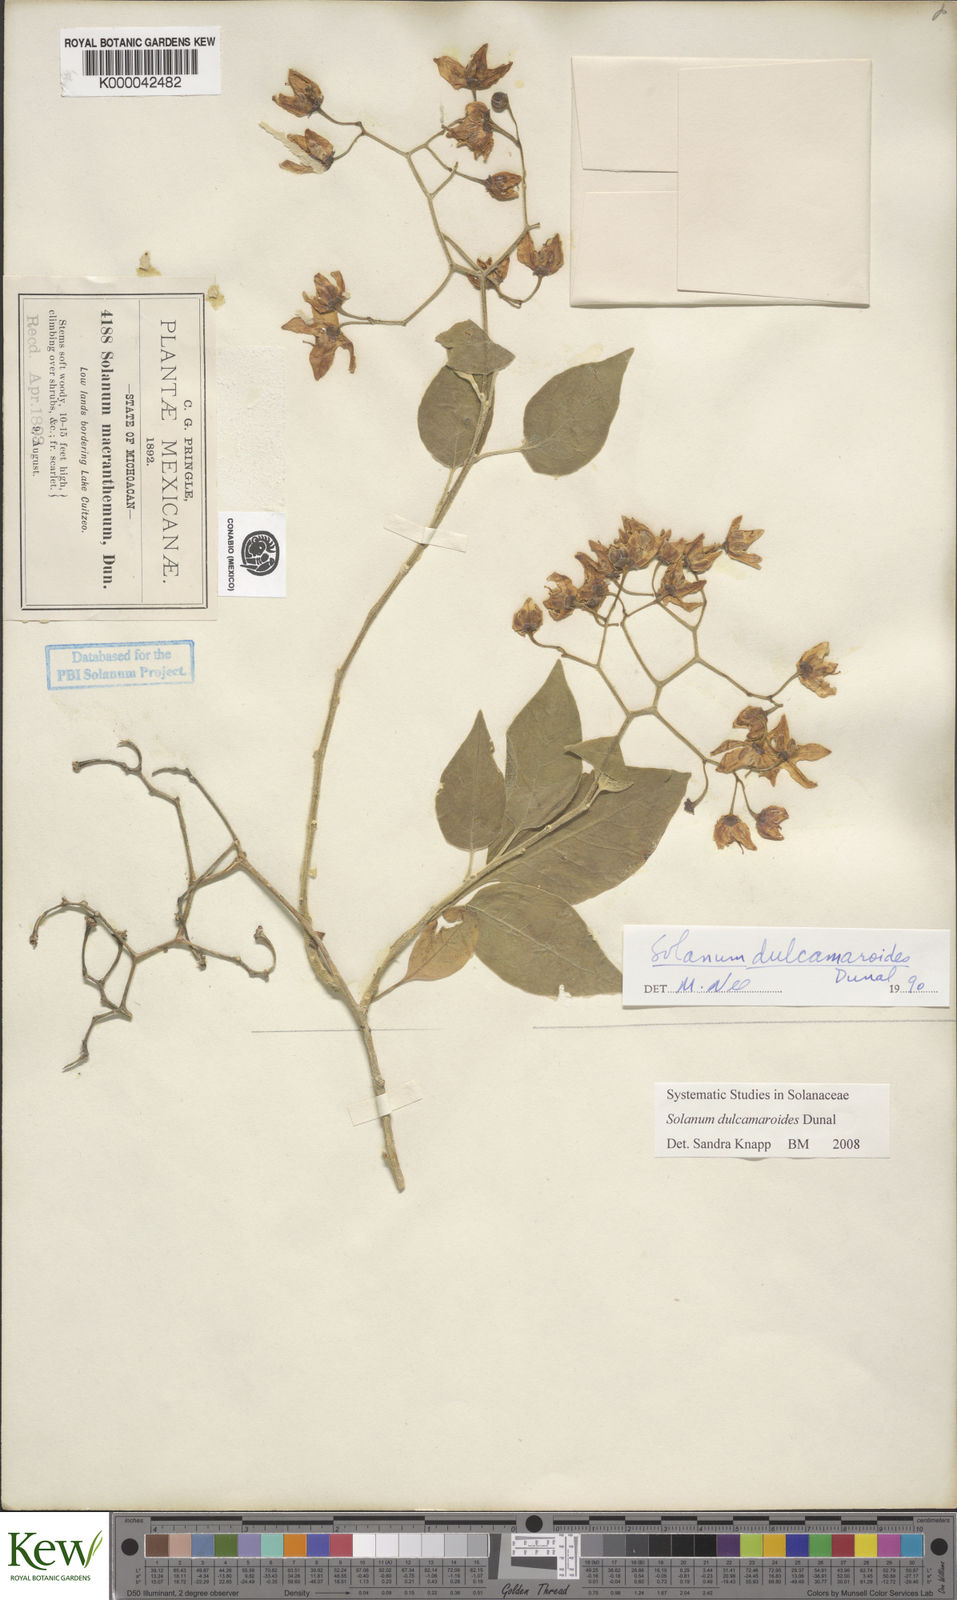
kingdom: Plantae
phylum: Tracheophyta
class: Magnoliopsida
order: Solanales
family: Solanaceae
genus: Solanum
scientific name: Solanum dulcamaroides
